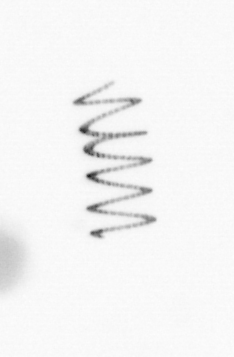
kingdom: Chromista
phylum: Ochrophyta
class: Bacillariophyceae
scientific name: Bacillariophyceae
